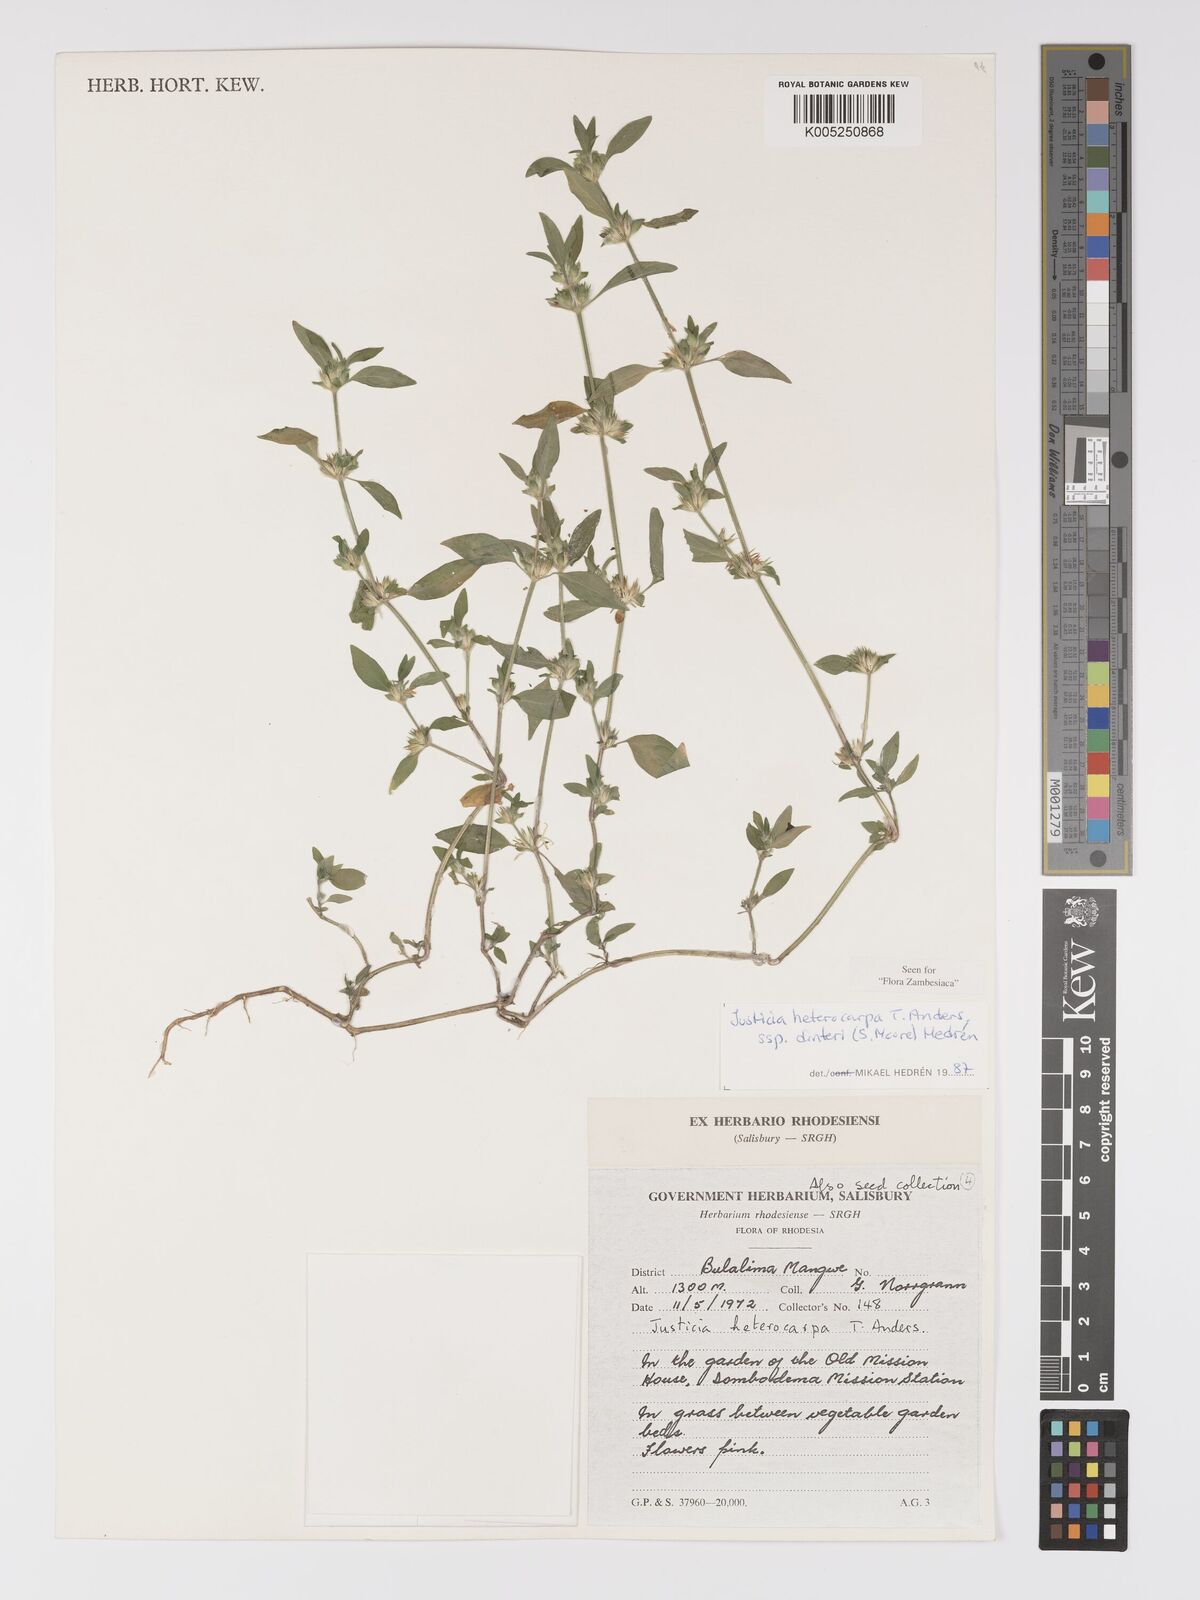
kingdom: Plantae
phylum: Tracheophyta
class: Magnoliopsida
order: Lamiales
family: Acanthaceae
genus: Justicia
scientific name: Justicia heterocarpa
